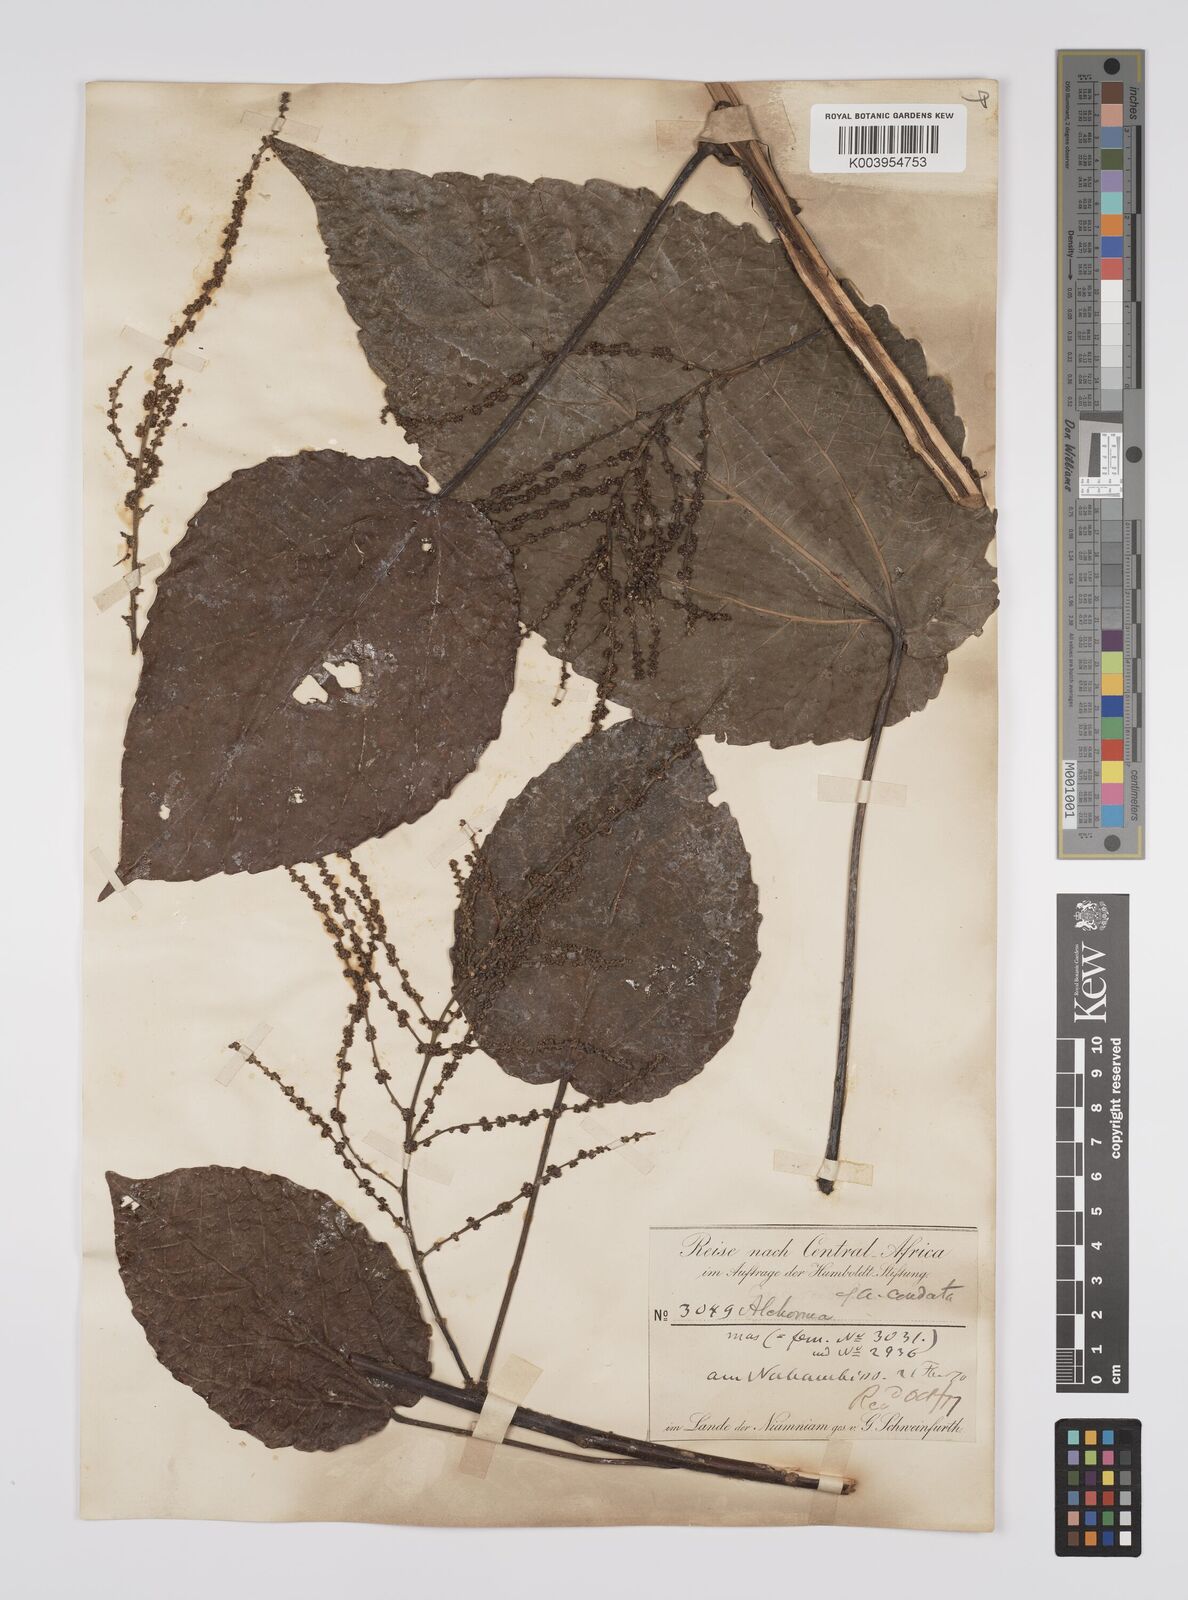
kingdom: Plantae
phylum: Tracheophyta
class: Magnoliopsida
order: Malpighiales
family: Euphorbiaceae
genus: Alchornea
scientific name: Alchornea cordifolia
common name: Christmasbush
